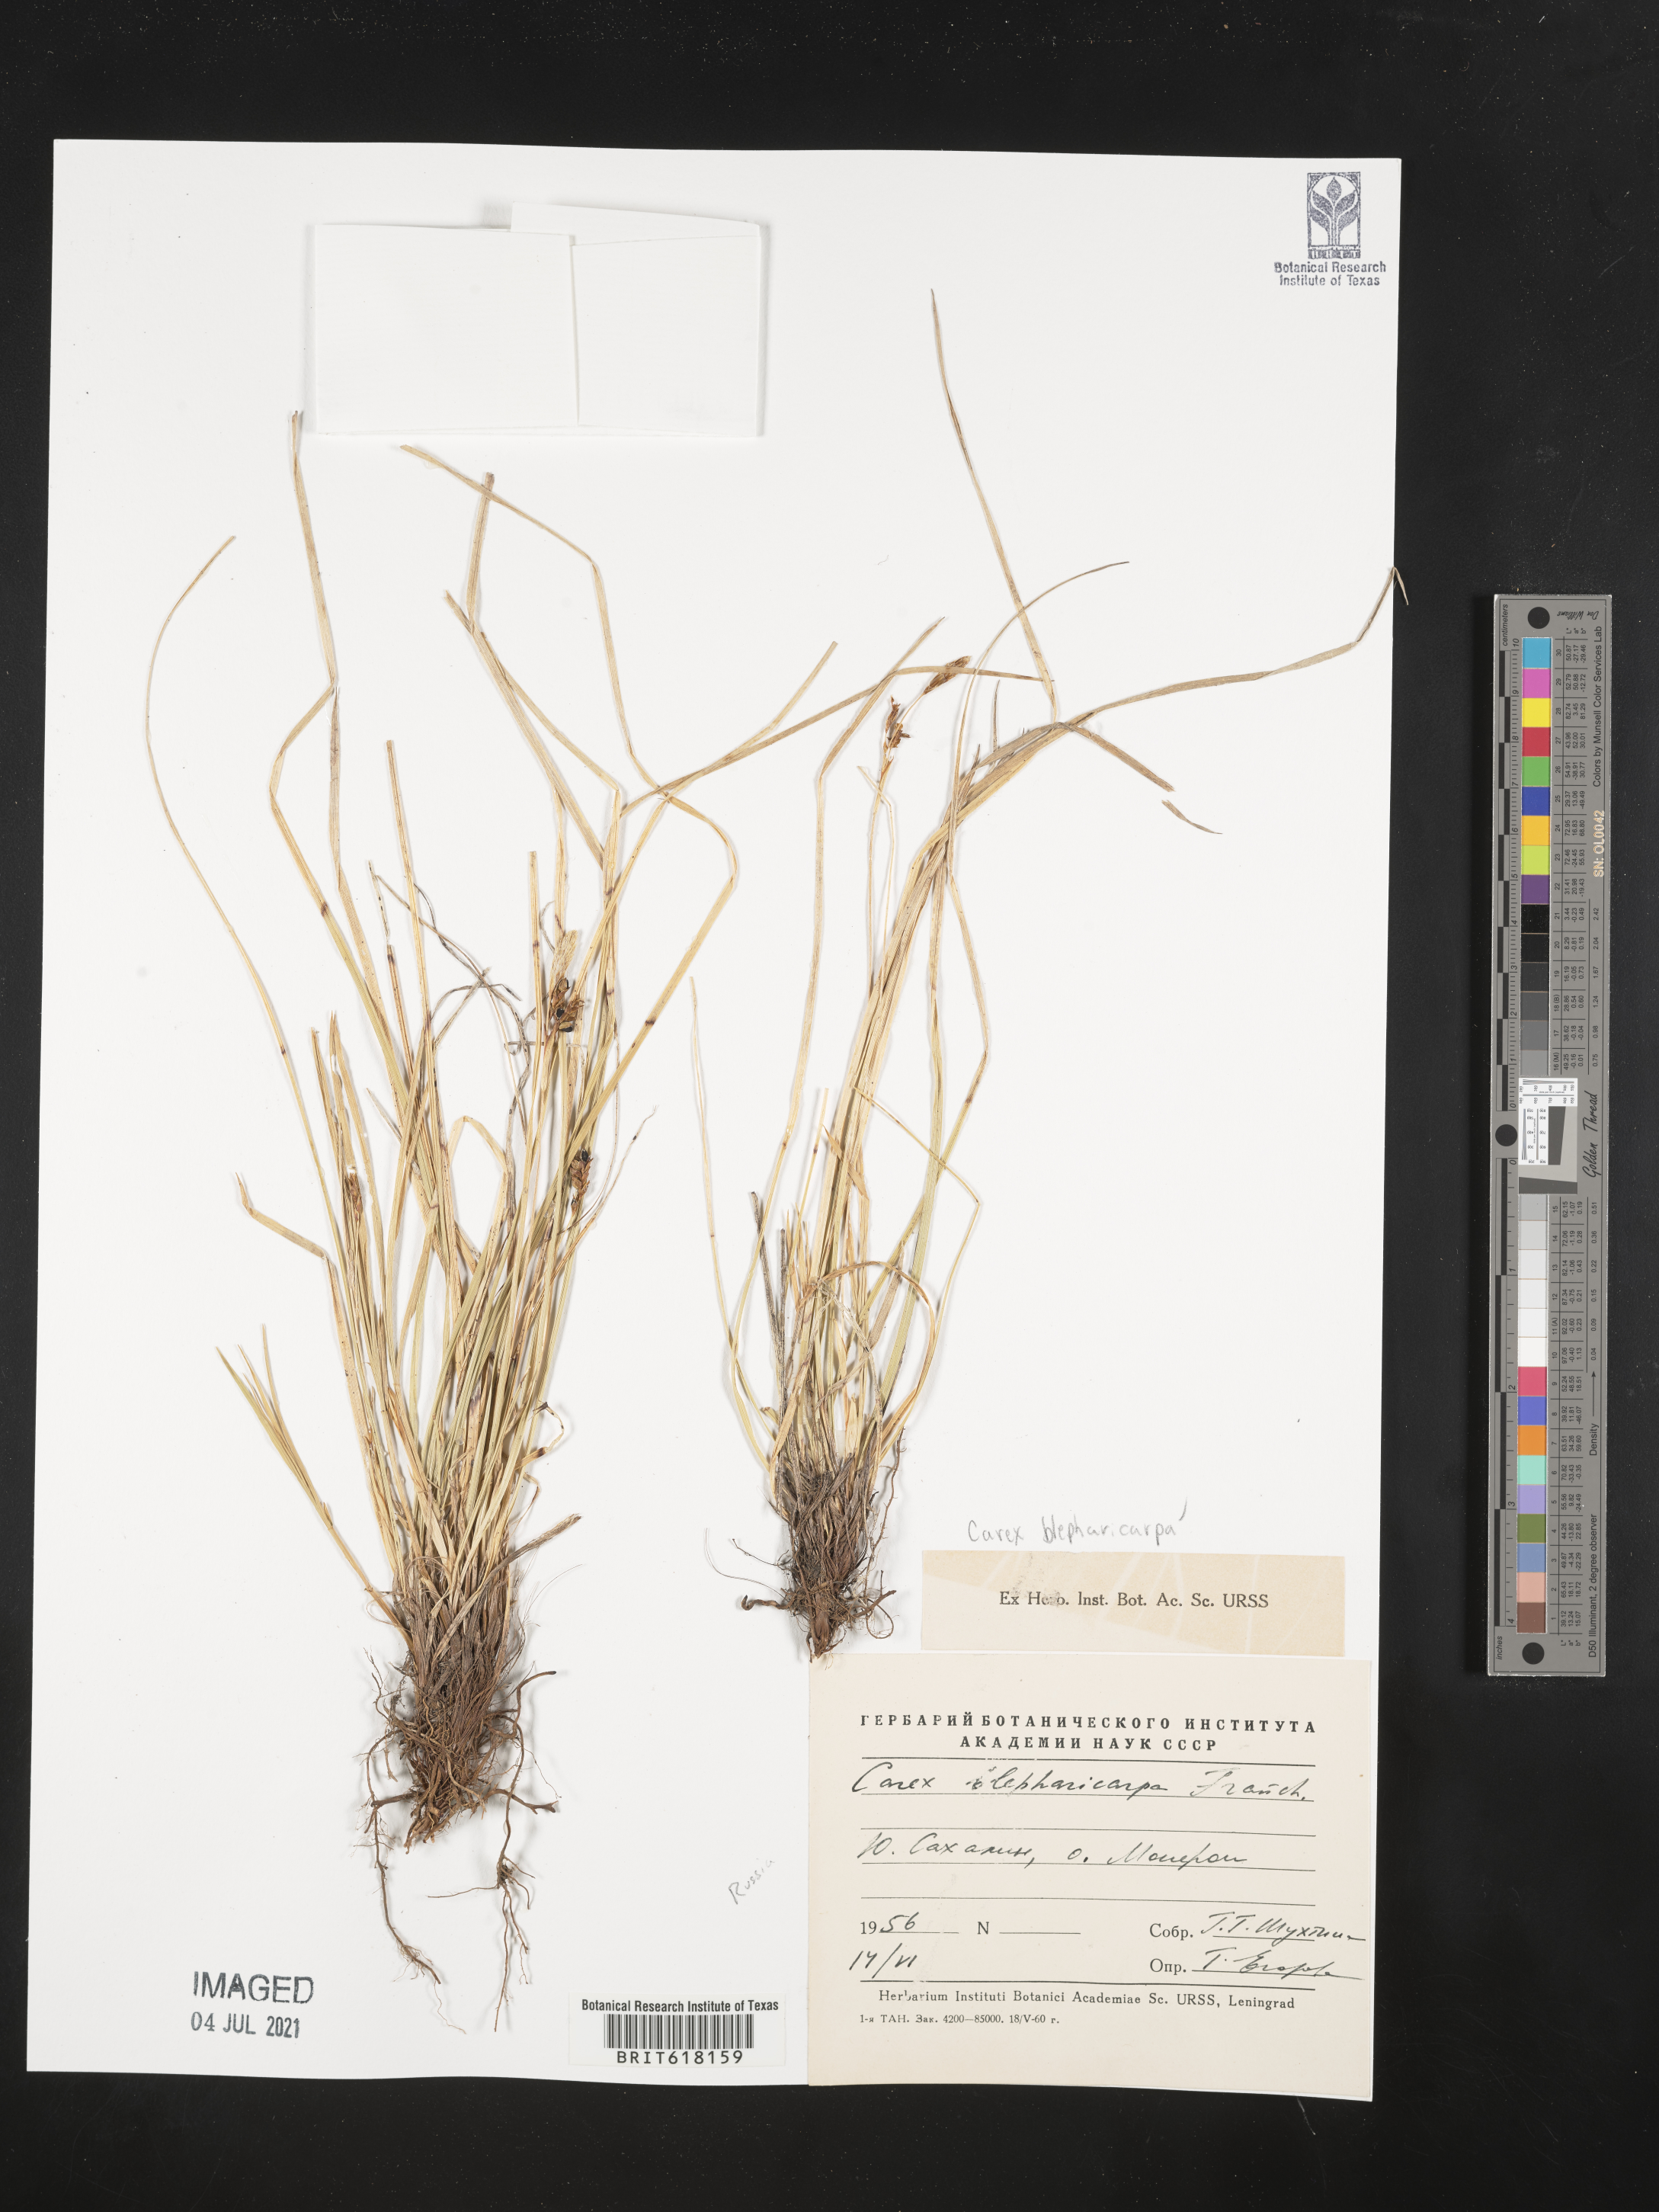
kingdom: Plantae
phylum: Tracheophyta
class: Liliopsida
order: Poales
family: Cyperaceae
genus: Carex
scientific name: Carex blepharicarpa
